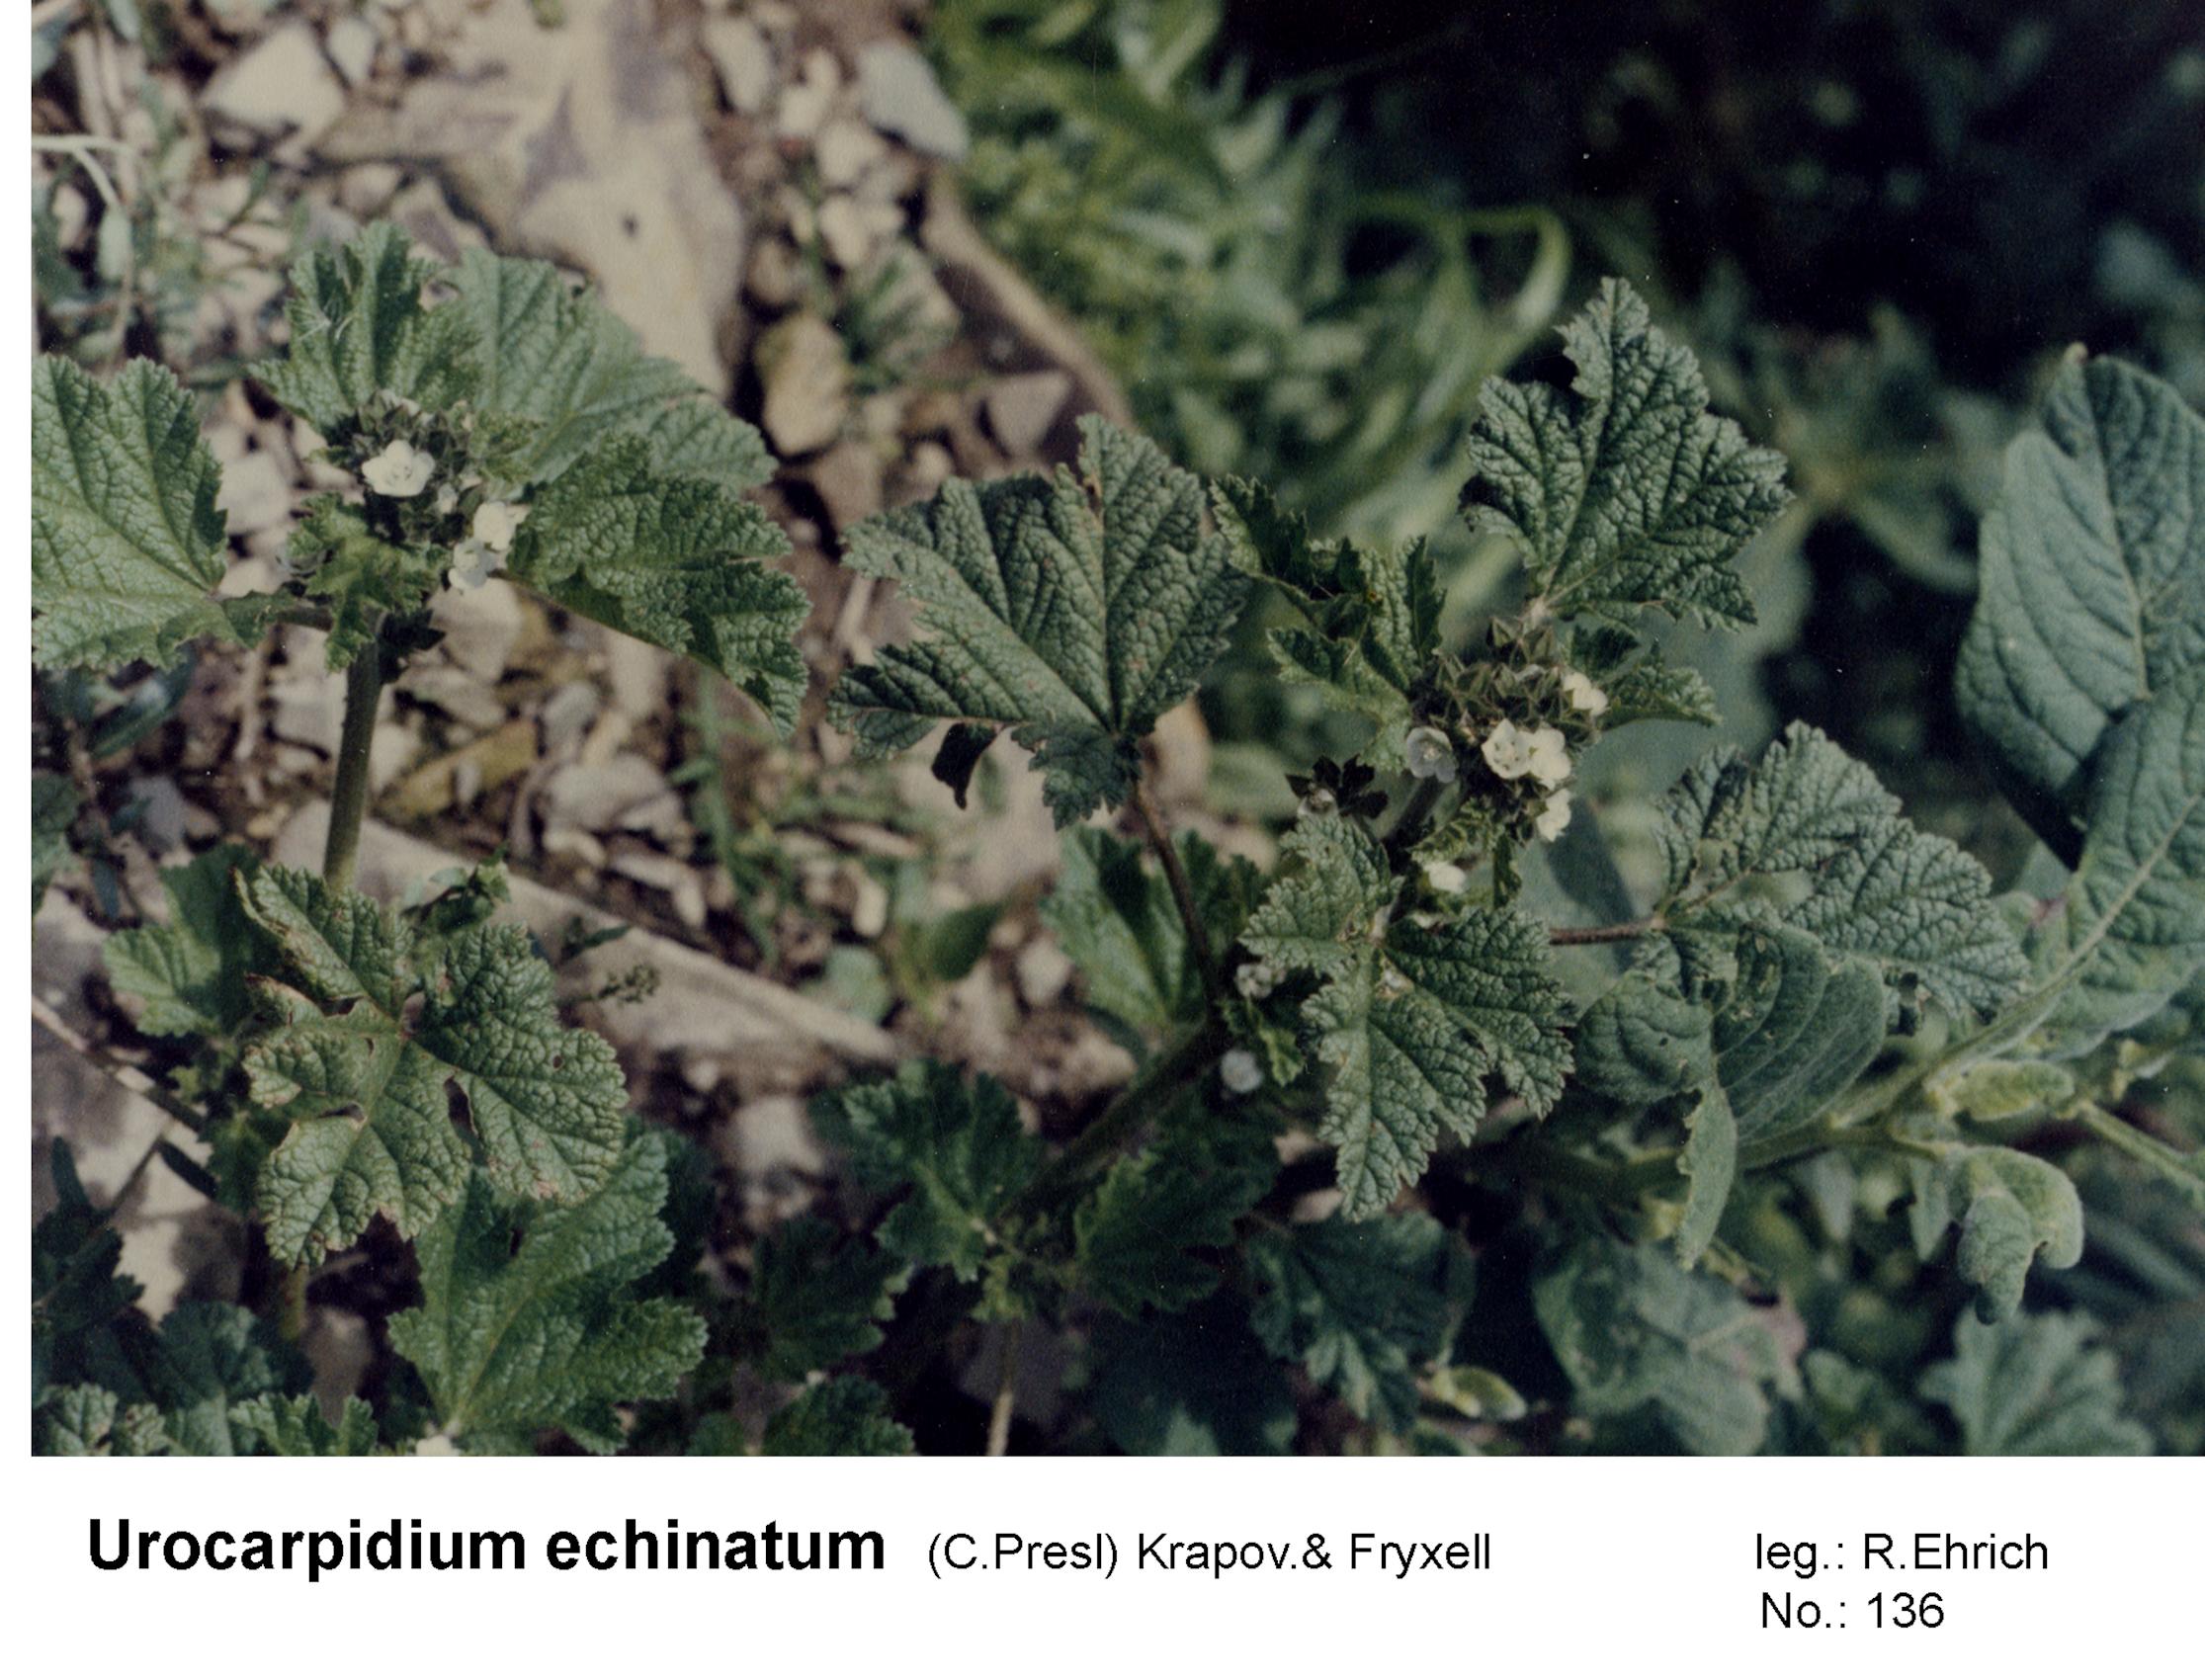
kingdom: Plantae
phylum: Tracheophyta
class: Magnoliopsida
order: Malvales
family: Malvaceae
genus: Fuertesimalva
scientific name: Fuertesimalva echinata
